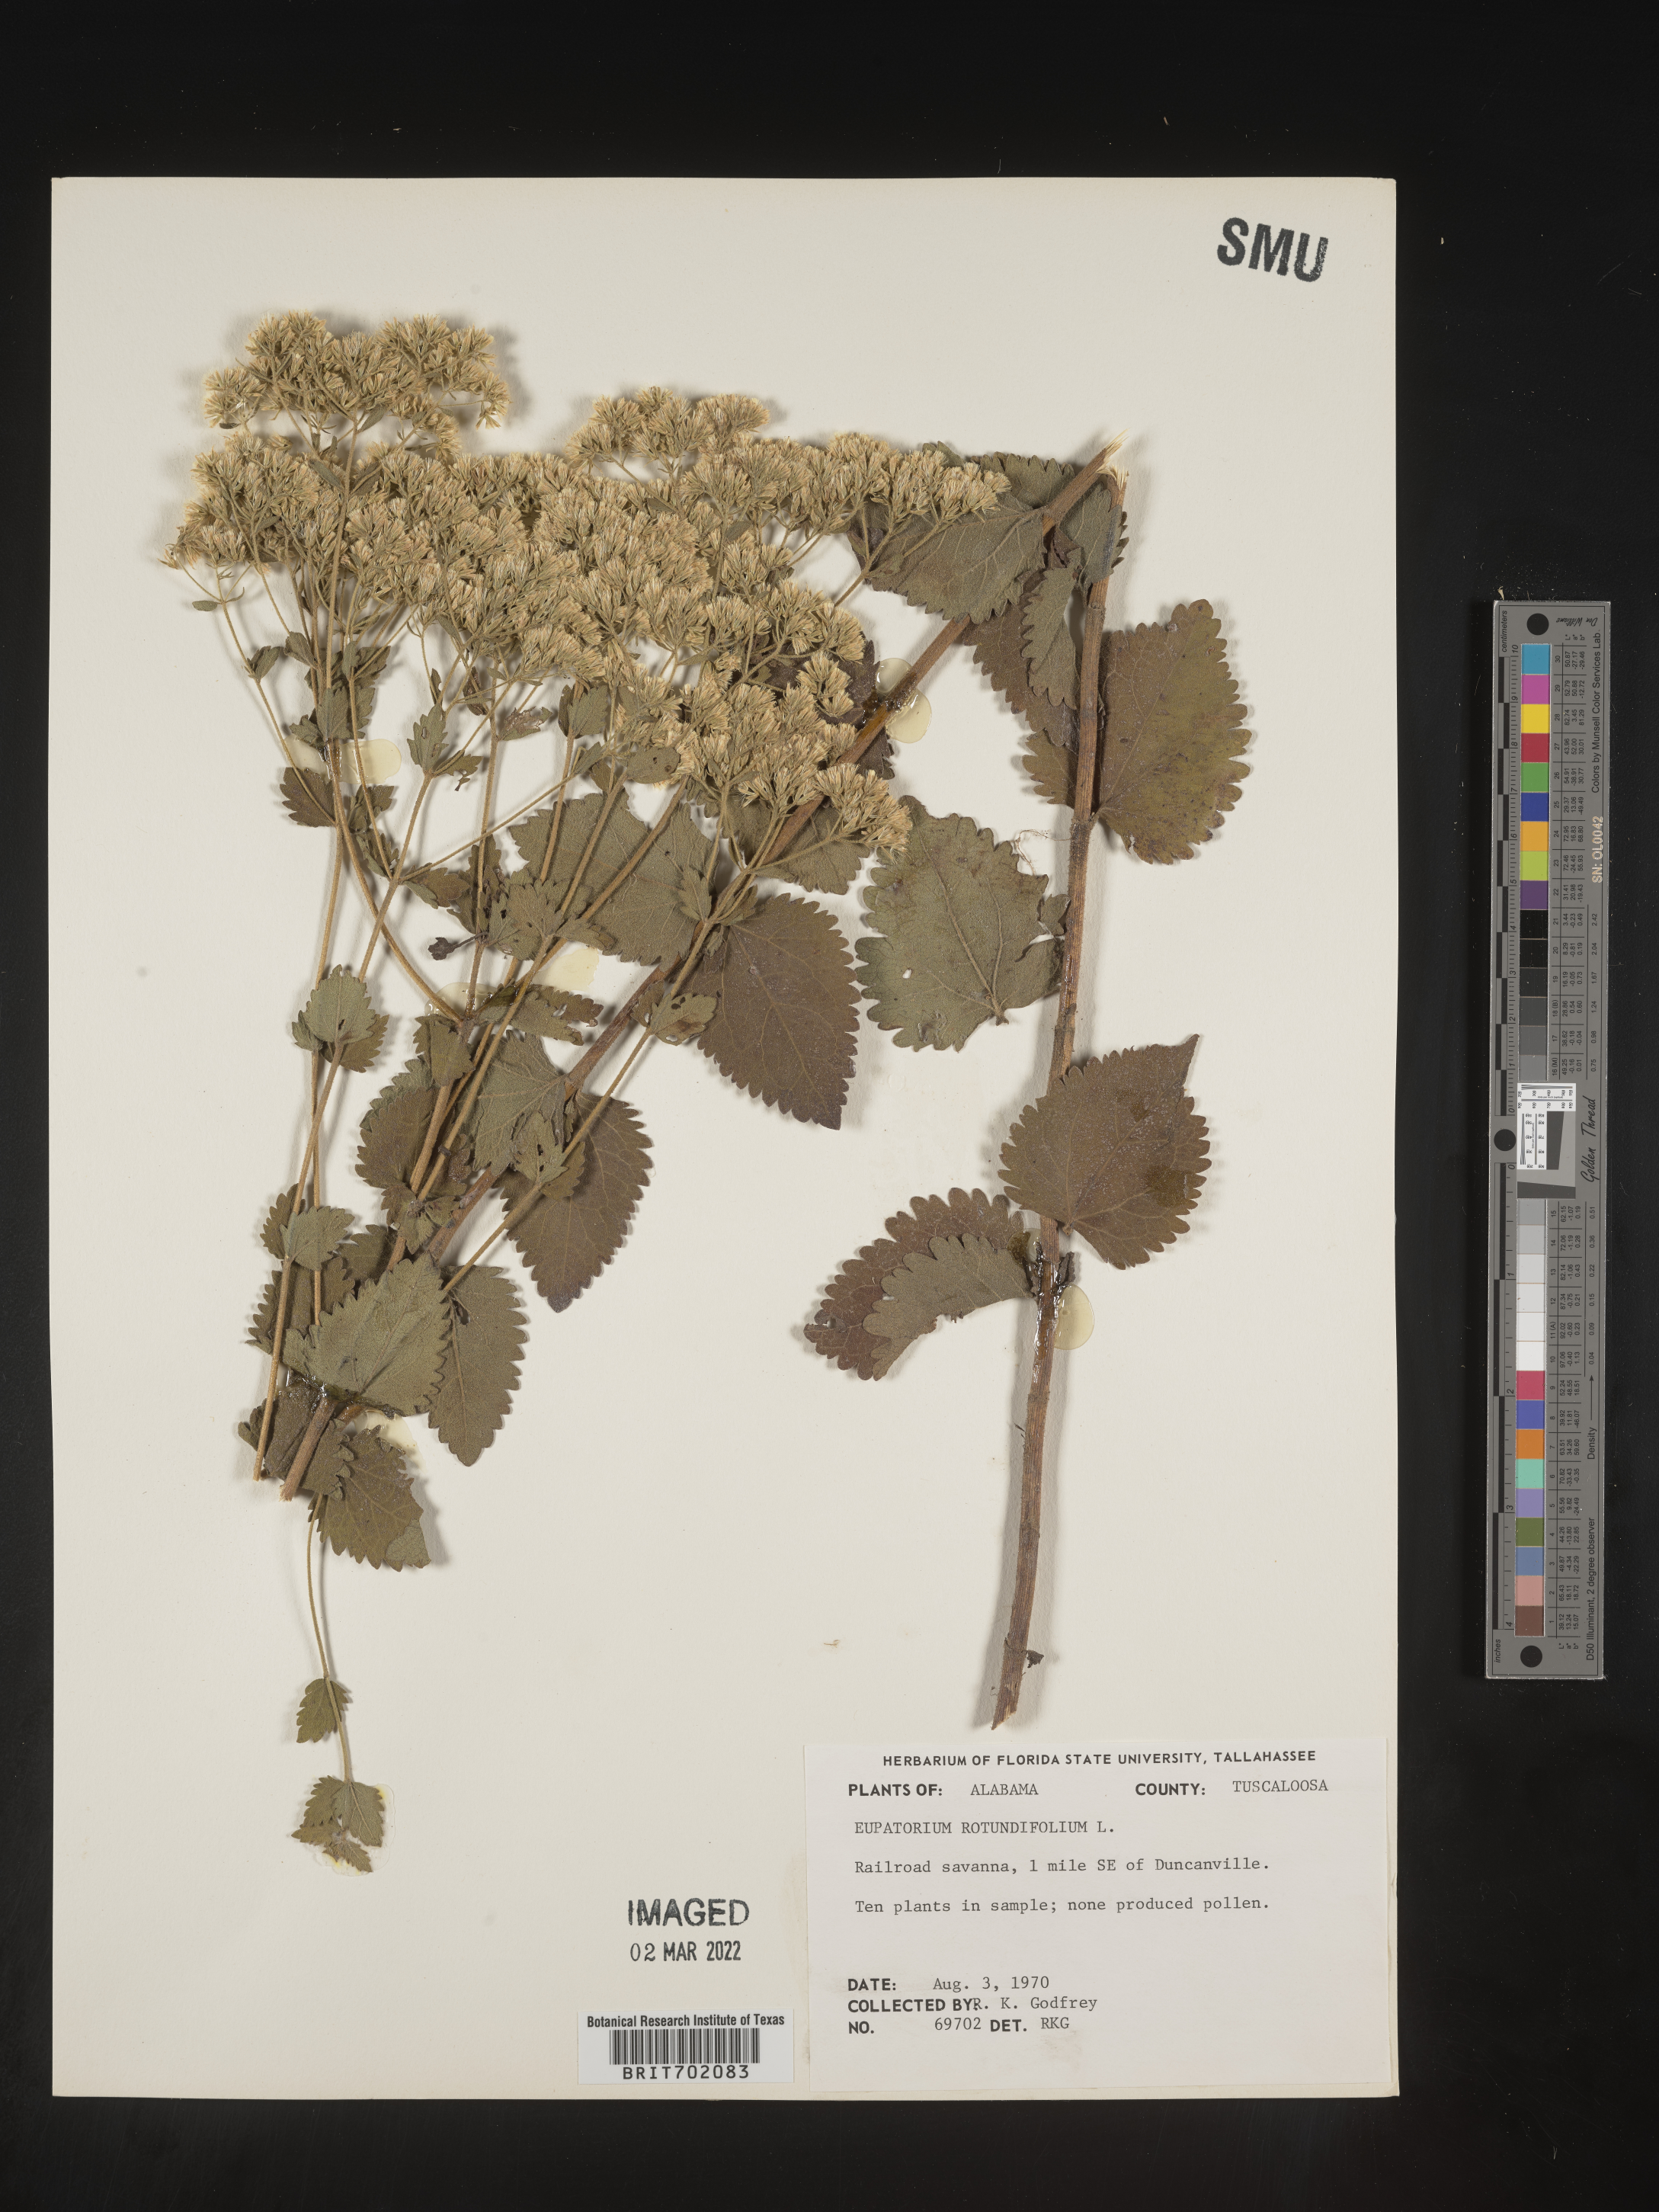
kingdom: Plantae
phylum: Tracheophyta
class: Magnoliopsida
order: Asterales
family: Asteraceae
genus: Eupatorium
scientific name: Eupatorium rotundifolium
